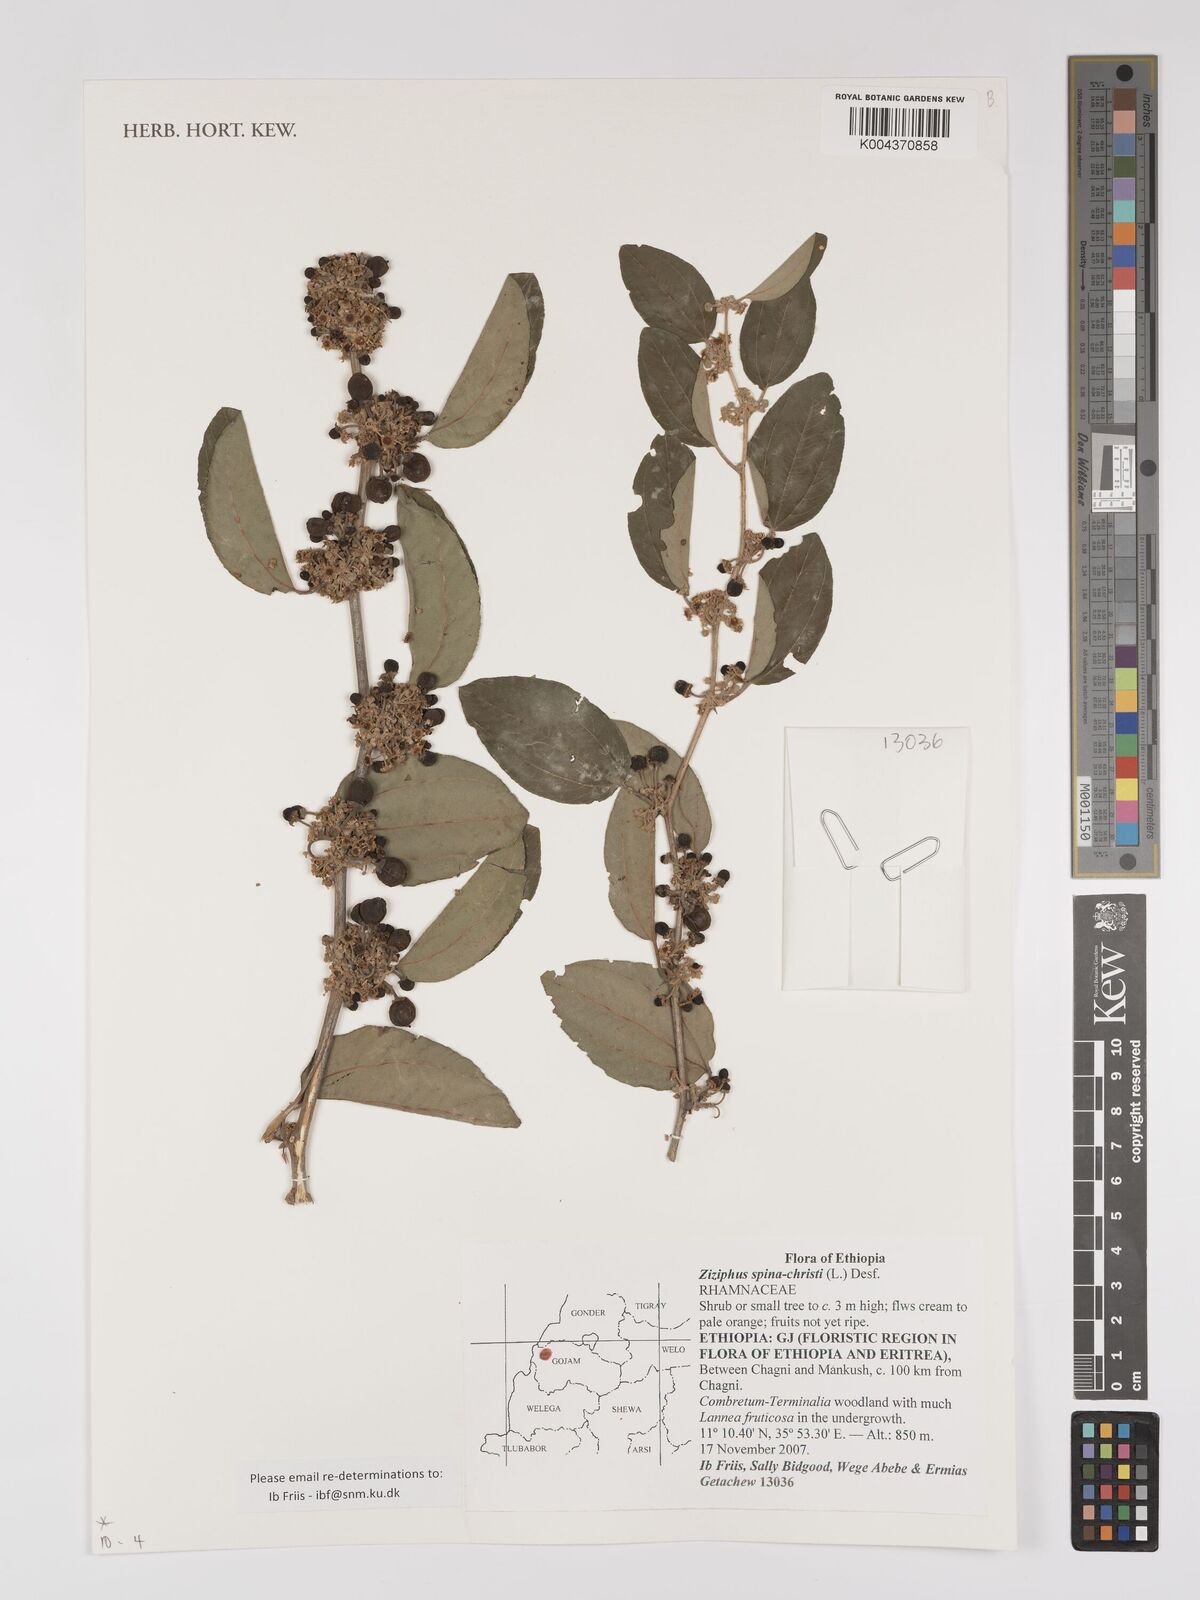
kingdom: Plantae
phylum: Tracheophyta
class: Magnoliopsida
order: Rosales
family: Rhamnaceae
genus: Ziziphus
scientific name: Ziziphus spina-christi
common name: Syrian christ-thorn
